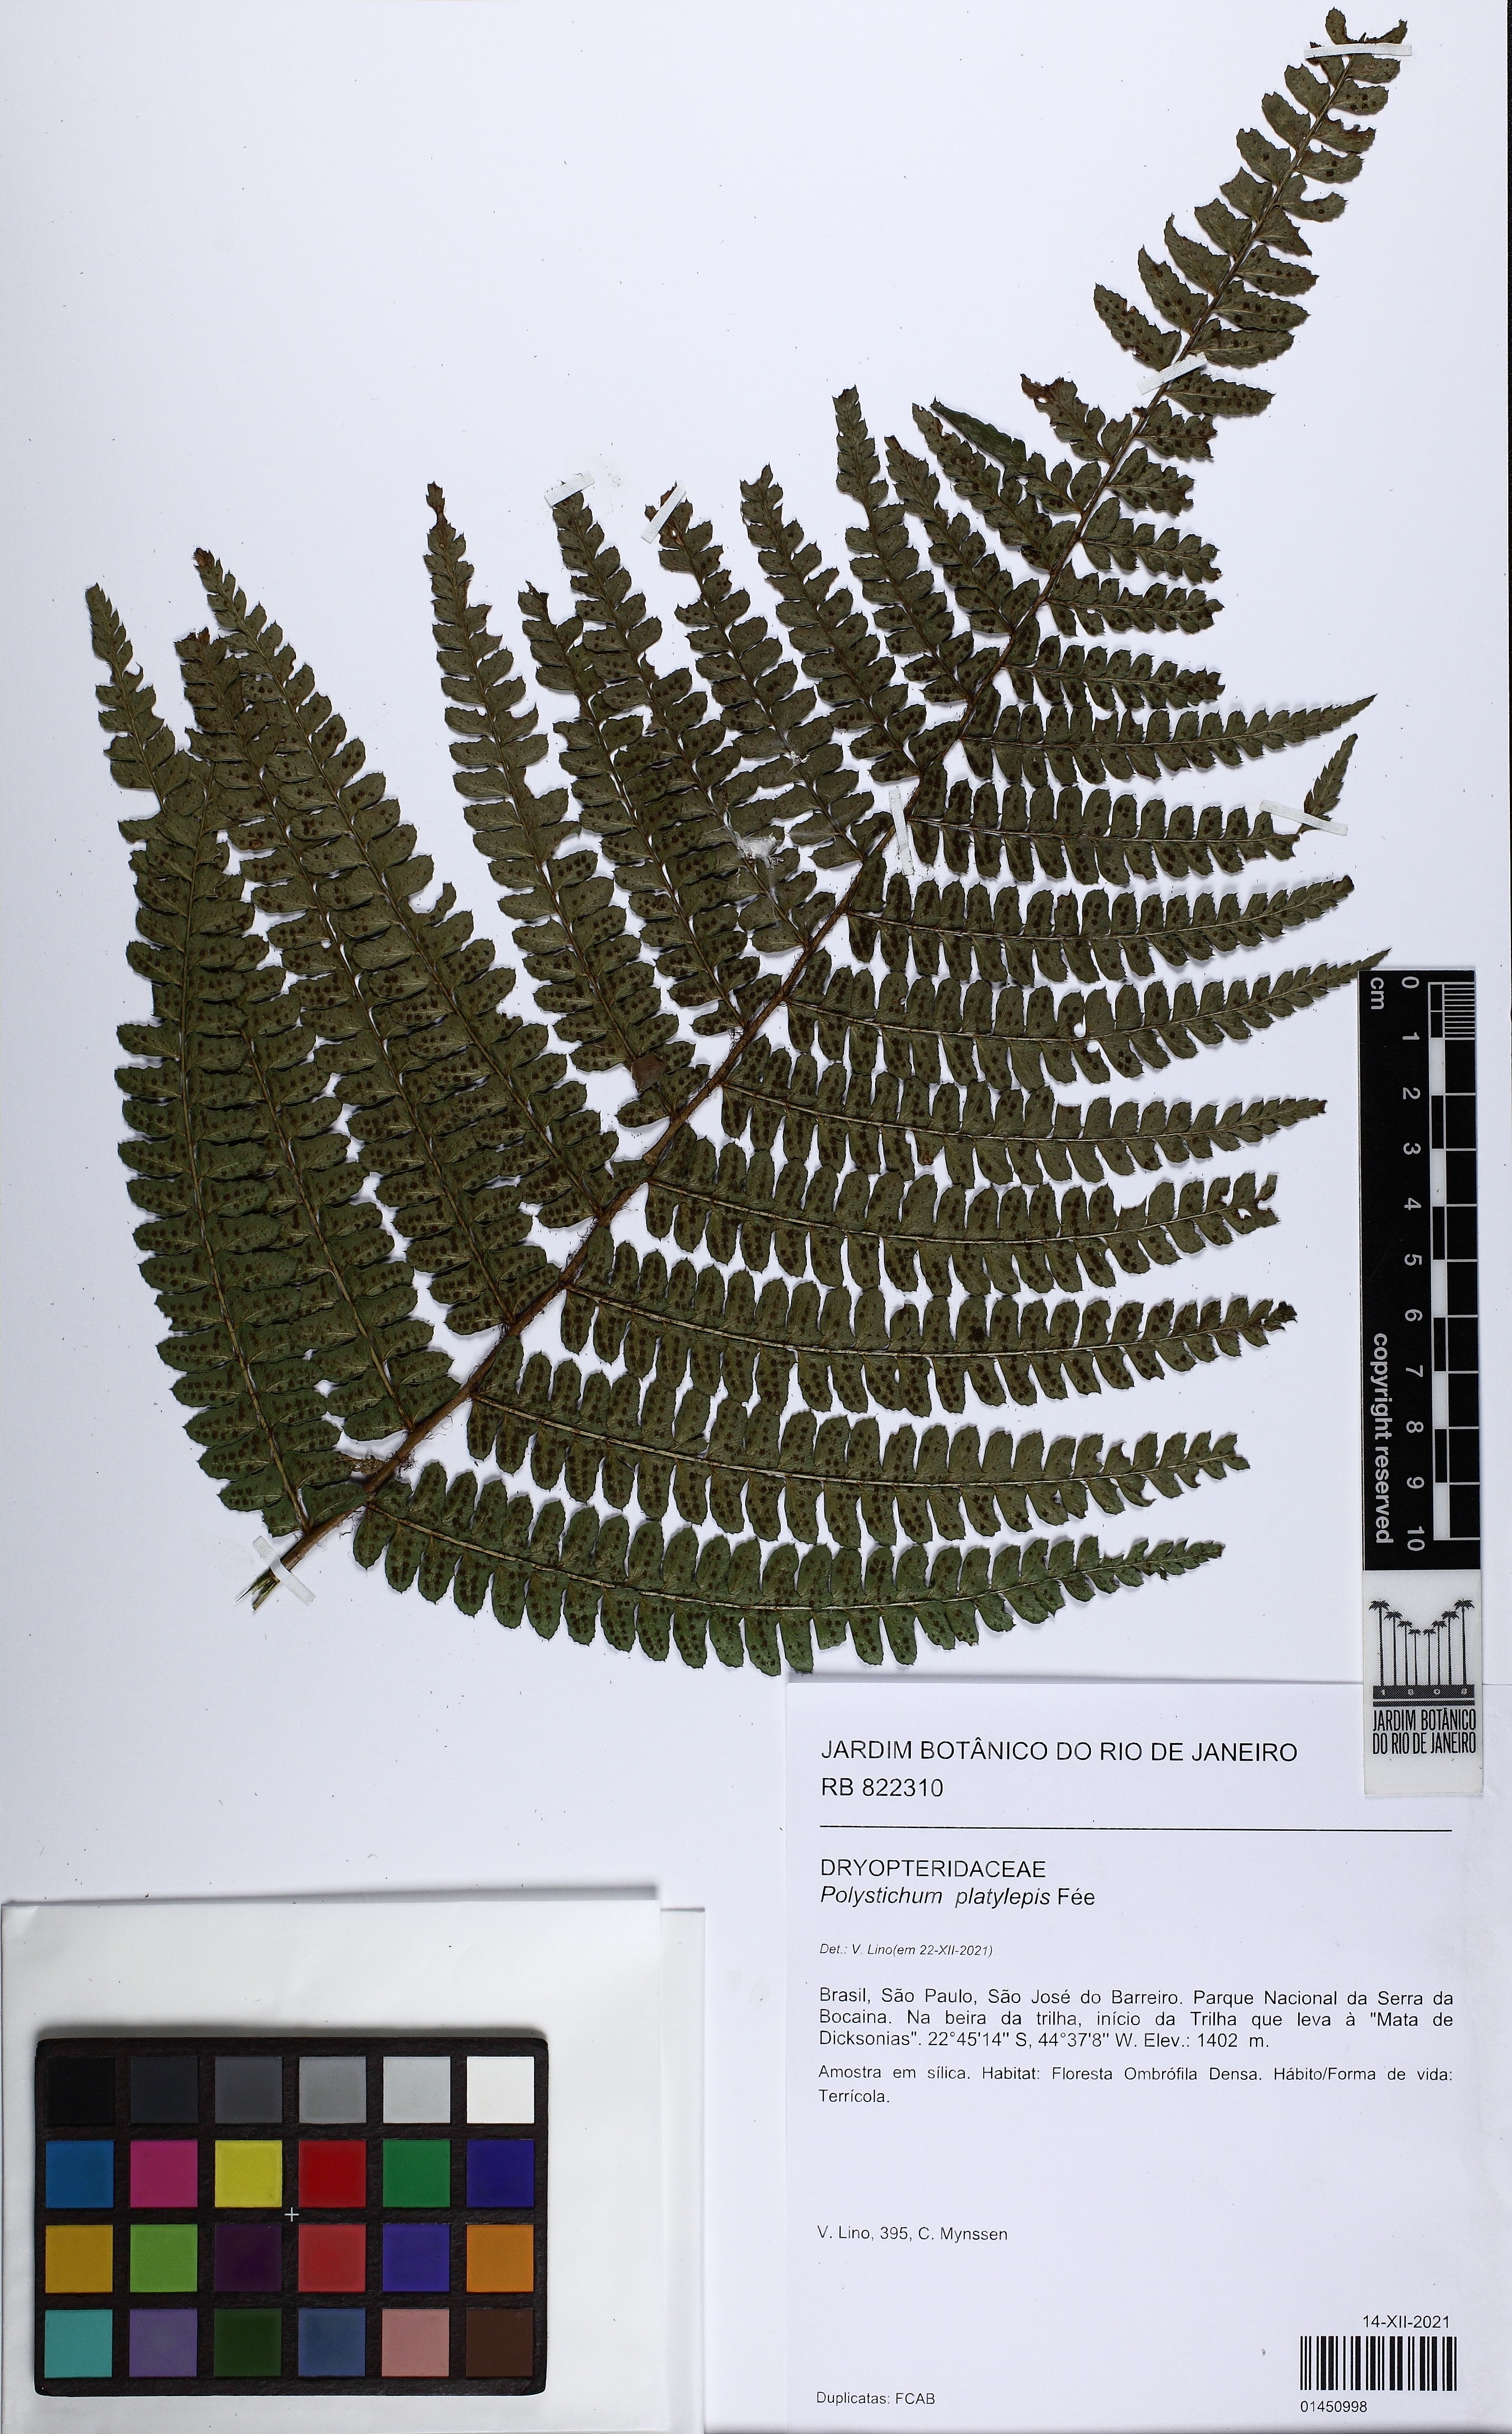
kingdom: Plantae
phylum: Tracheophyta
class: Polypodiopsida
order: Polypodiales
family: Dryopteridaceae
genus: Polystichum
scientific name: Polystichum platylepis
